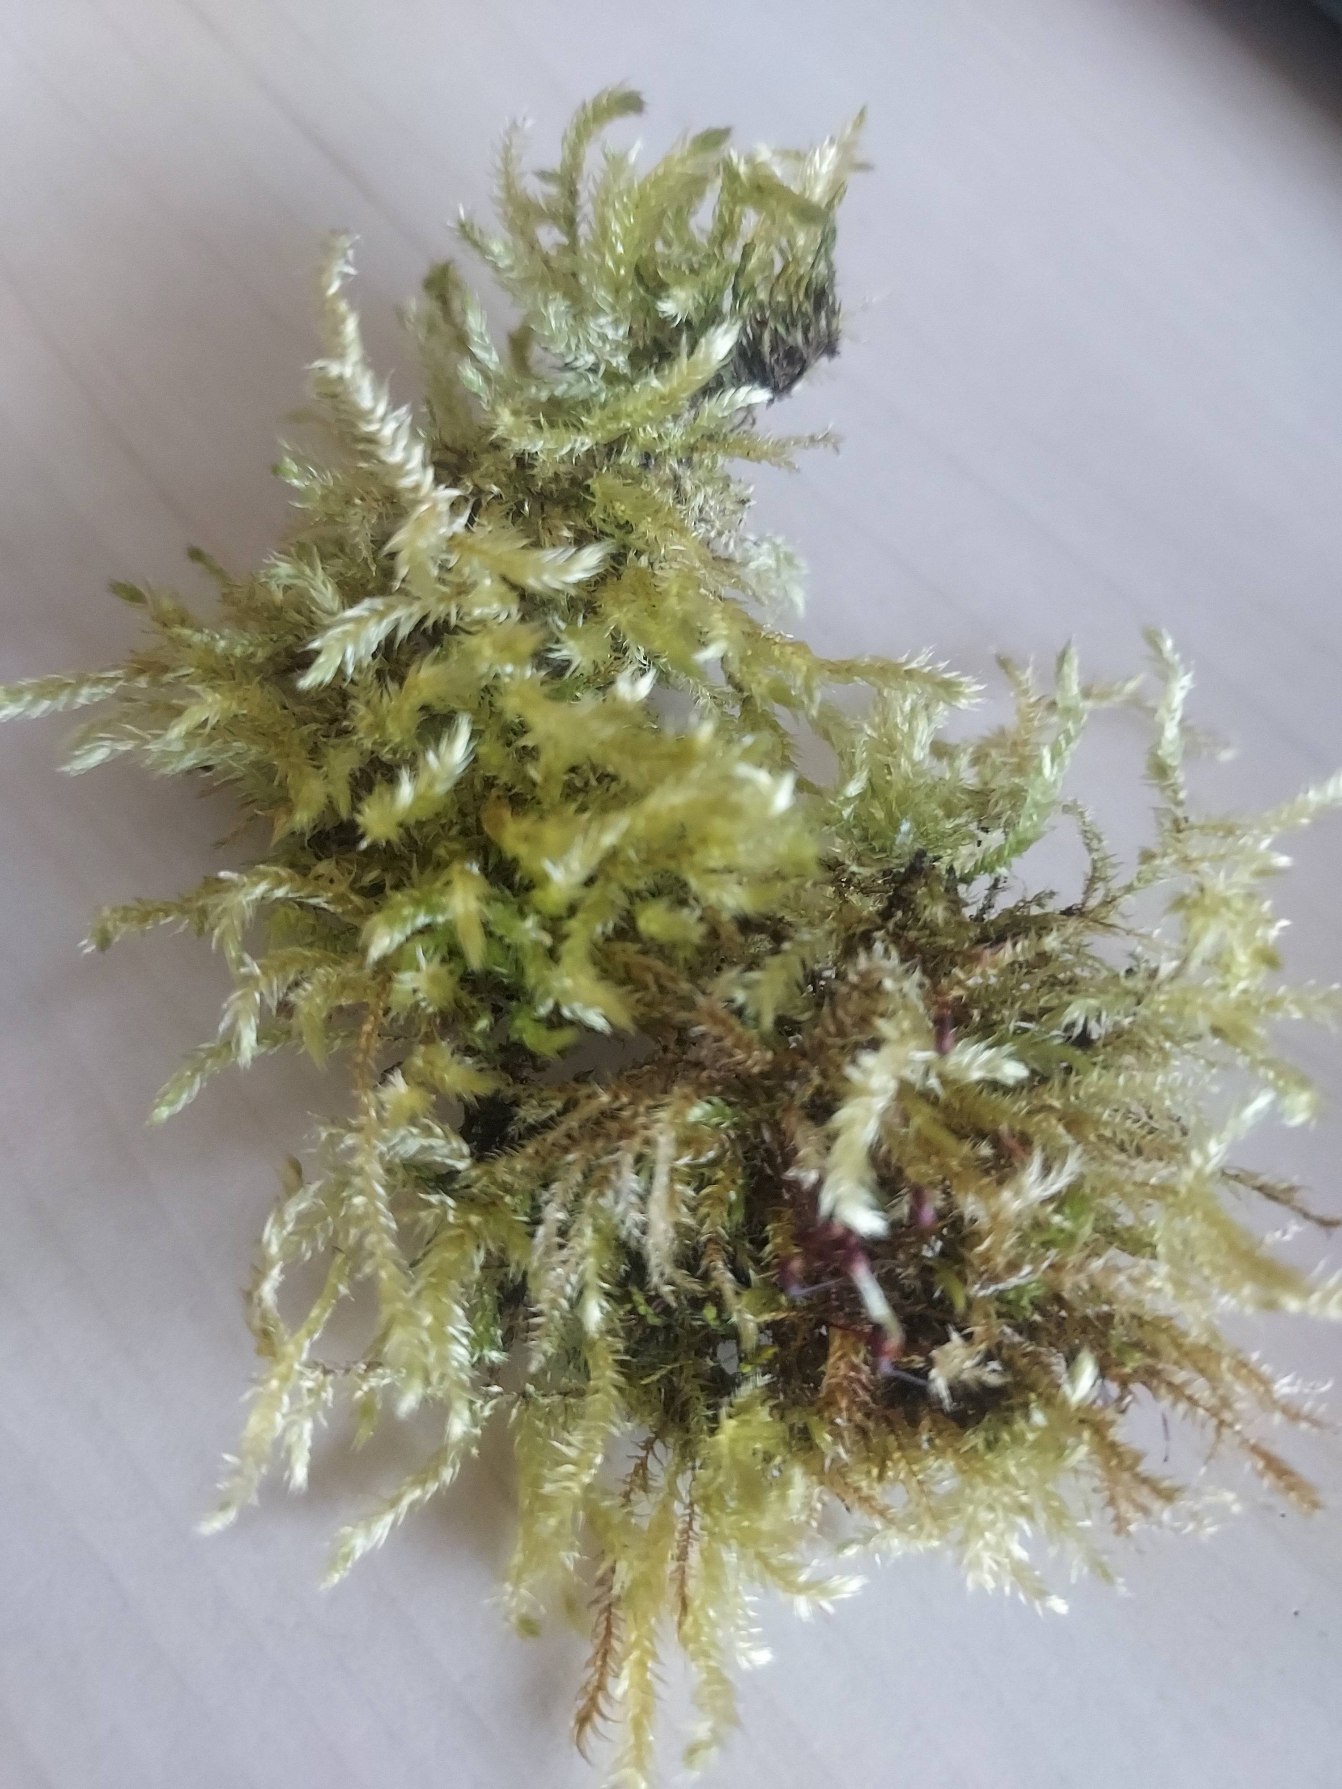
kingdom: Plantae
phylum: Bryophyta
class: Bryopsida
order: Hypnales
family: Brachytheciaceae
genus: Brachythecium
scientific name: Brachythecium rutabulum
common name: Almindelig kortkapsel
